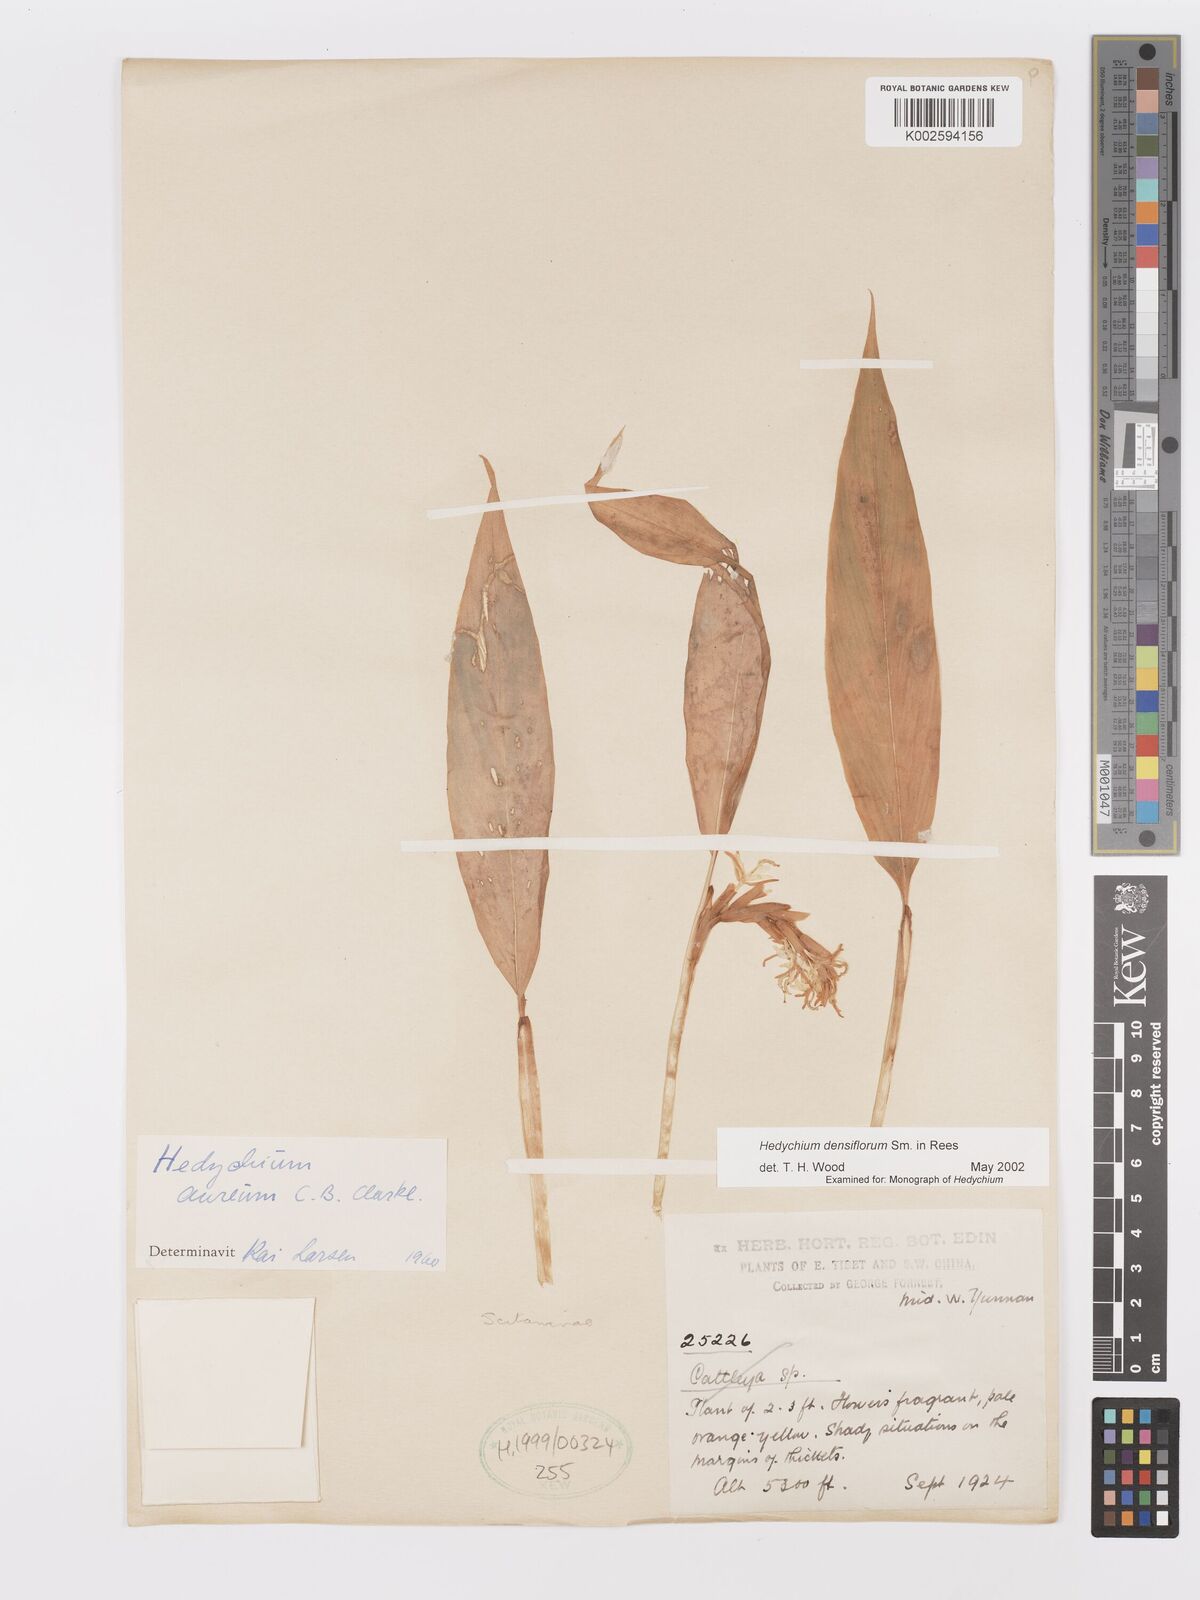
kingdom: Plantae
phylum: Tracheophyta
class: Liliopsida
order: Zingiberales
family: Zingiberaceae
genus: Hedychium
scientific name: Hedychium densiflorum
